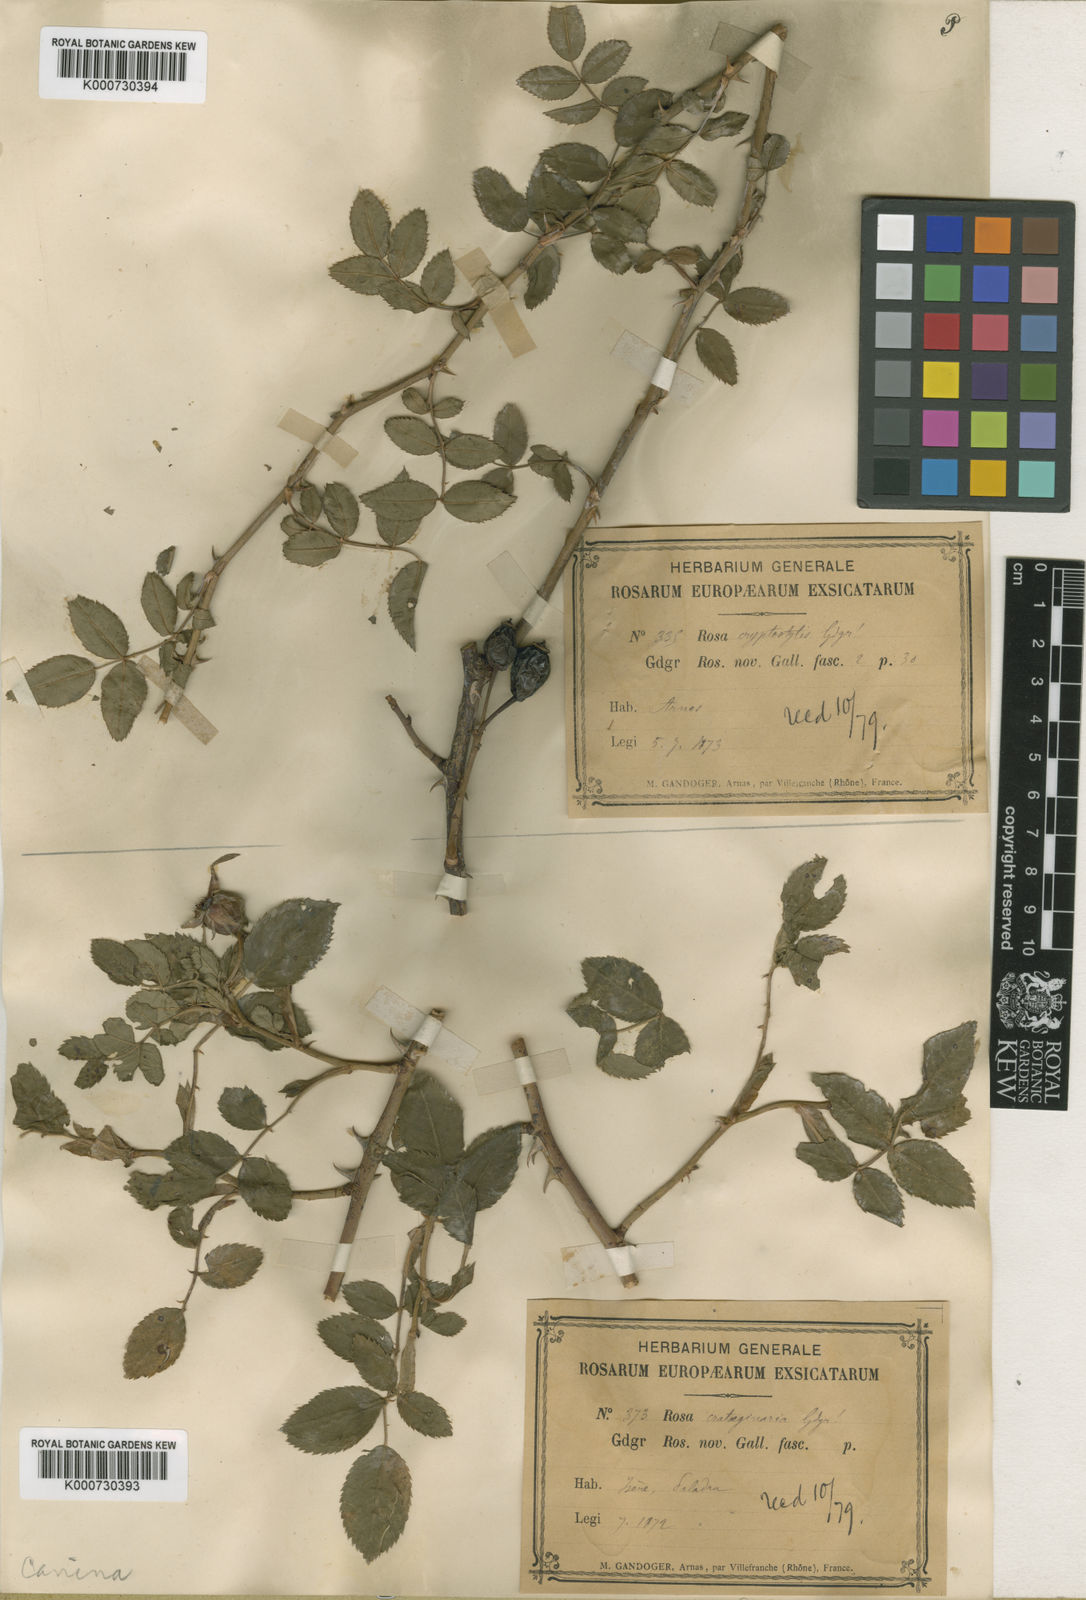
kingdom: Plantae
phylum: Tracheophyta
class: Magnoliopsida
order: Rosales
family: Rosaceae
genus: Rosa
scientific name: Rosa canina
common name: Dog rose
